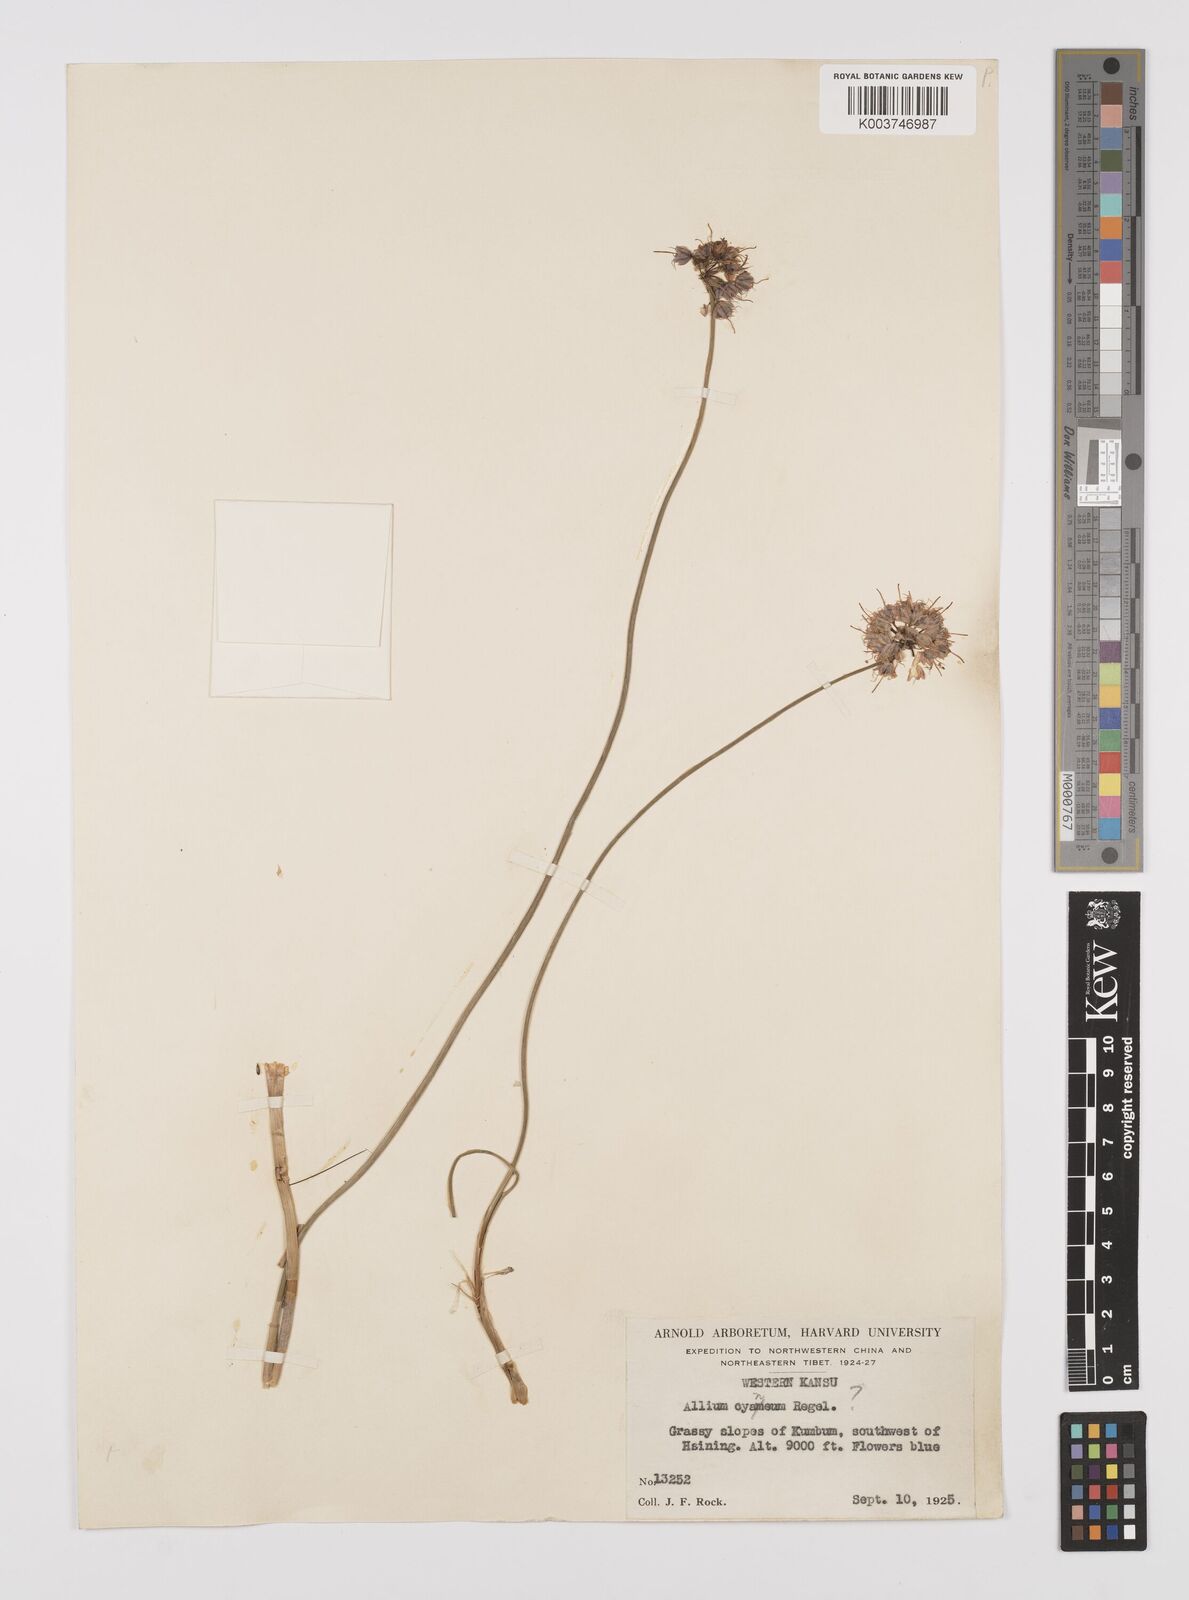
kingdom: Plantae
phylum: Tracheophyta
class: Liliopsida
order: Asparagales
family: Amaryllidaceae
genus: Allium
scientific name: Allium
